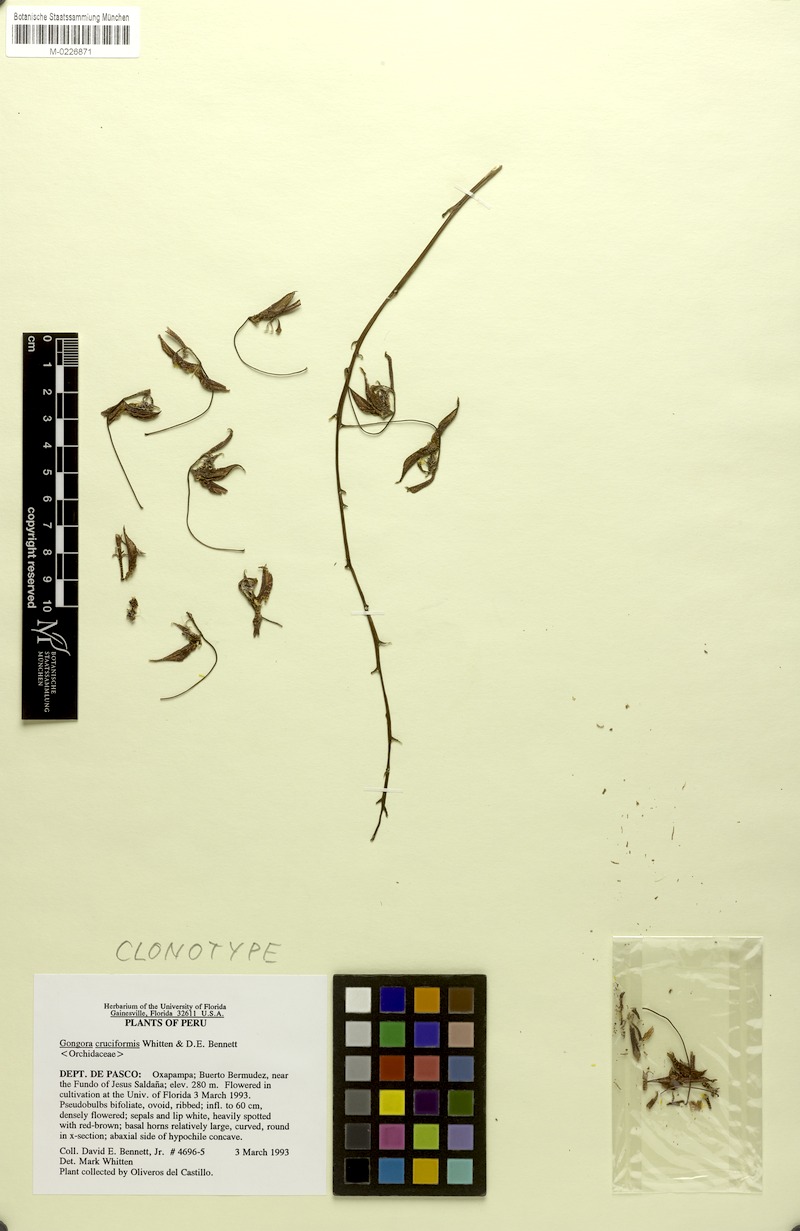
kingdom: Plantae
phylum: Tracheophyta
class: Liliopsida
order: Asparagales
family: Orchidaceae
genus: Gongora
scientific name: Gongora cruciformis
